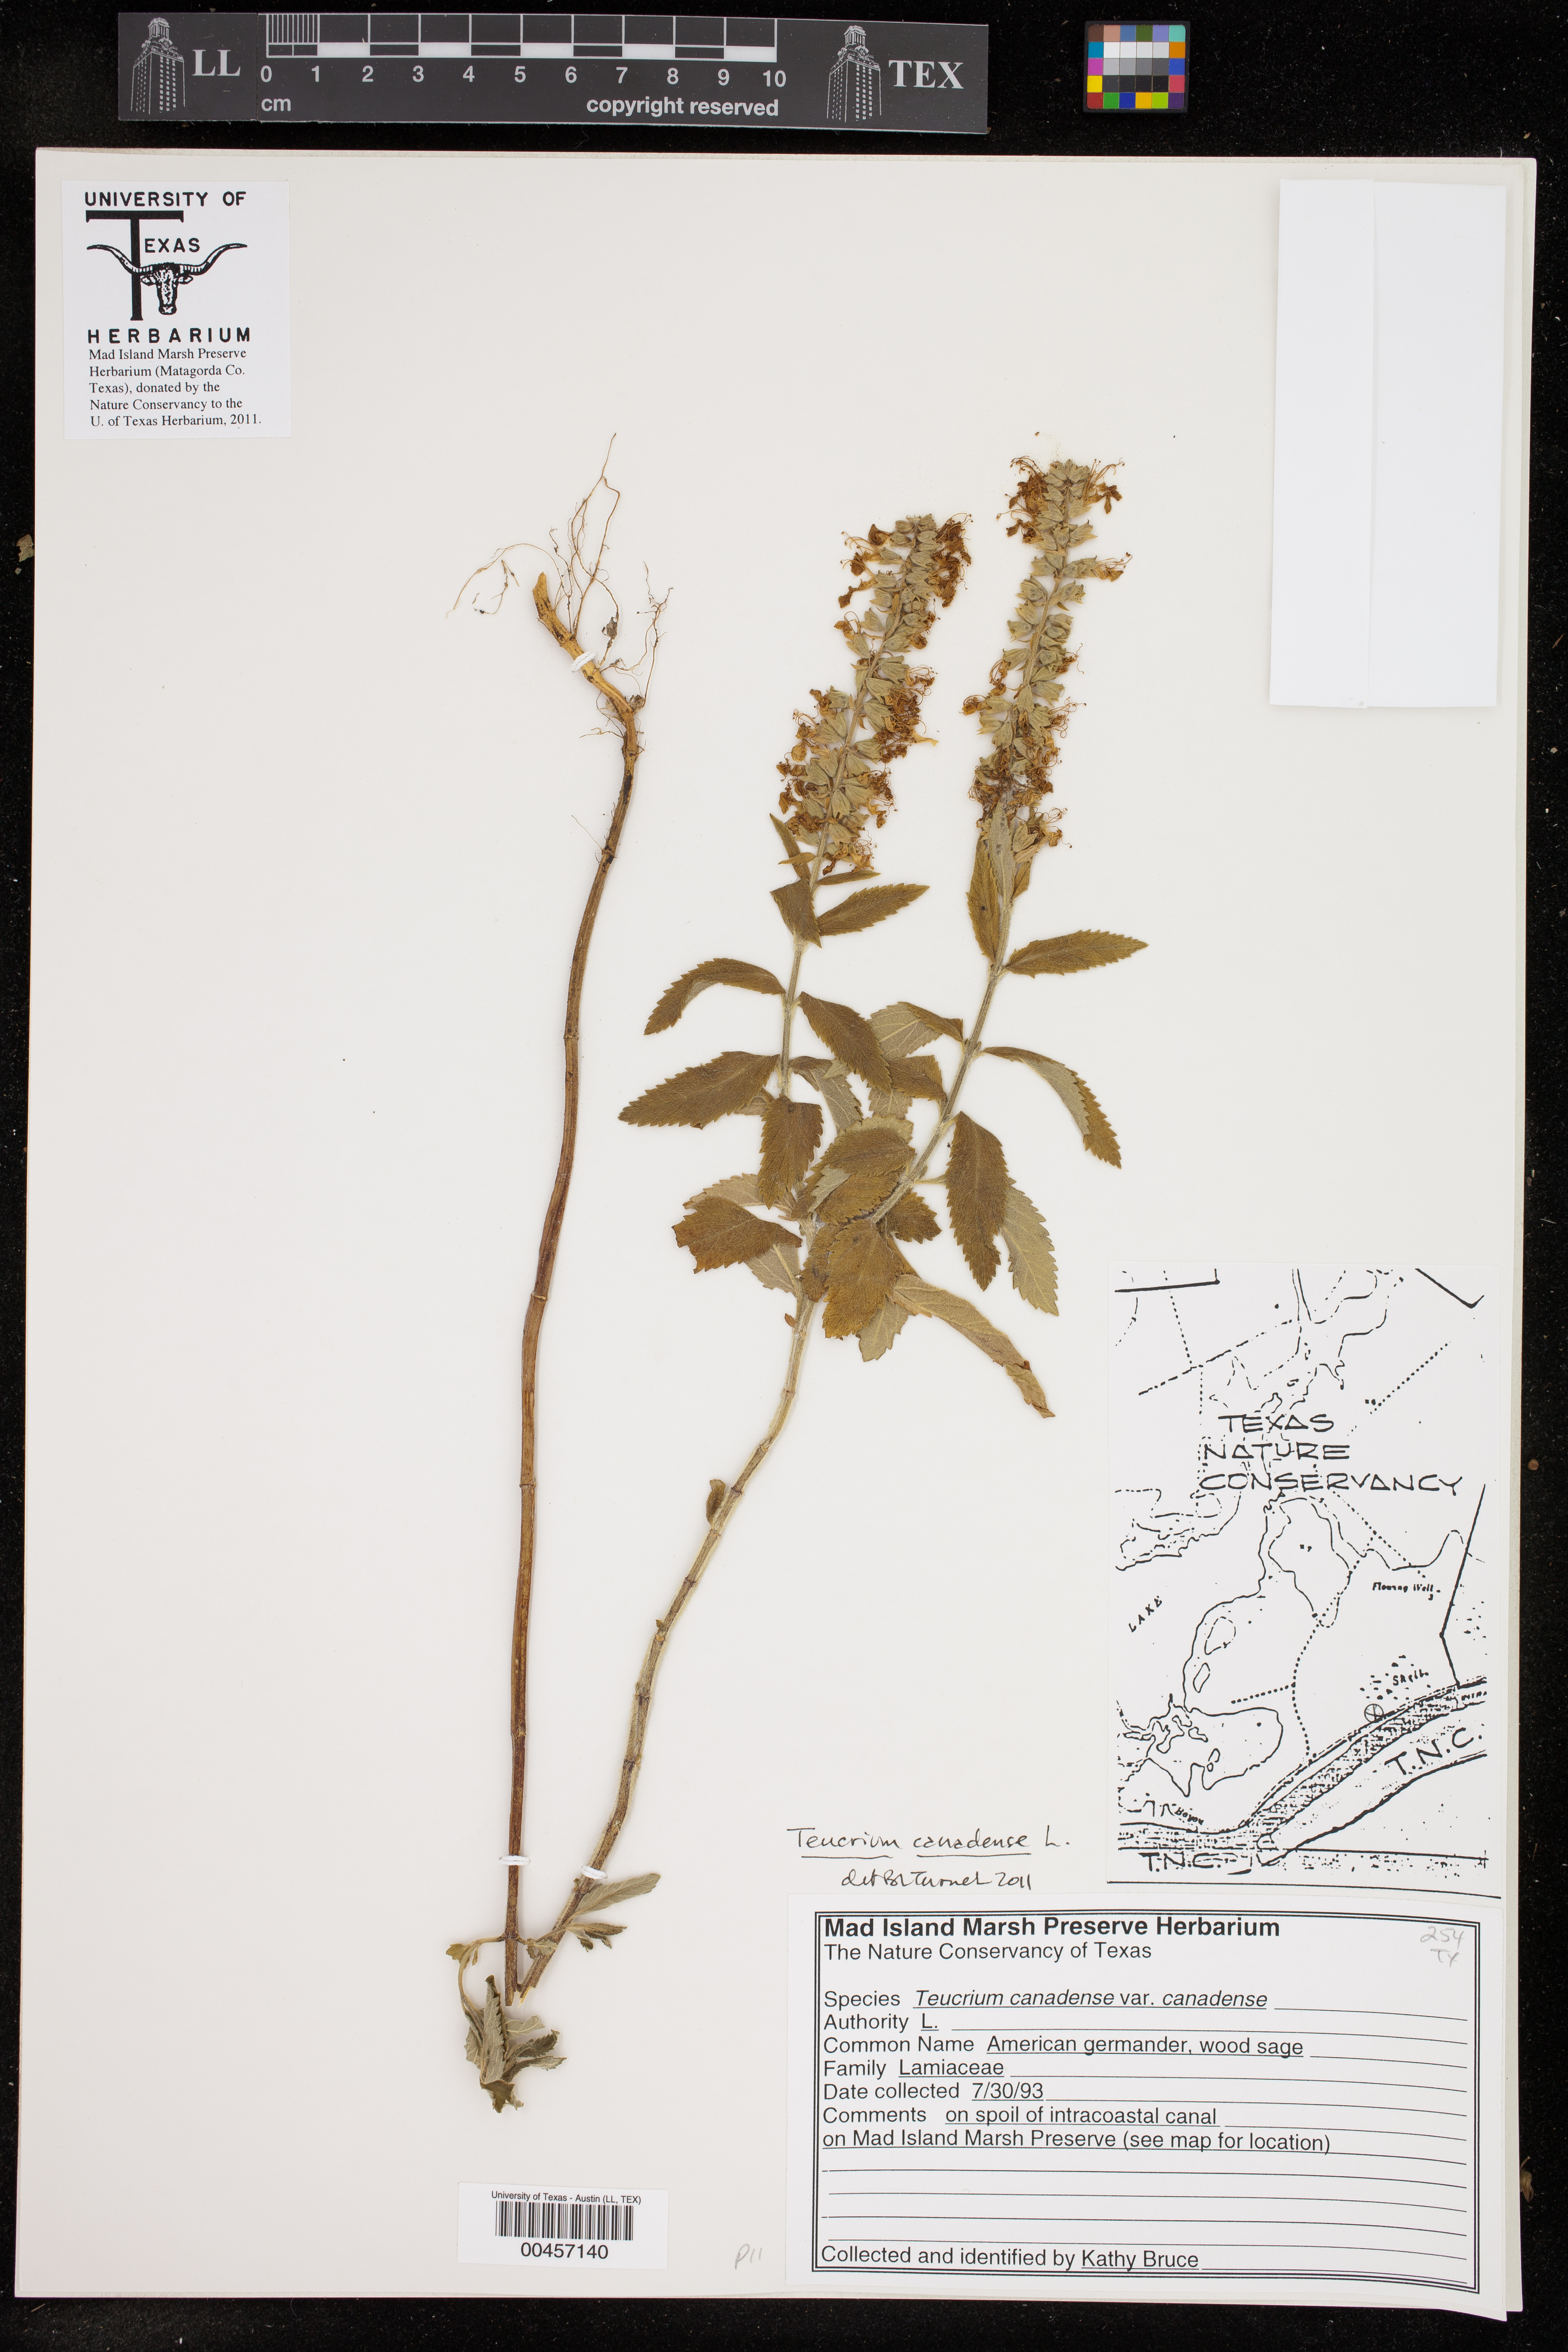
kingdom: Plantae
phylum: Tracheophyta
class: Magnoliopsida
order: Lamiales
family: Lamiaceae
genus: Teucrium
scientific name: Teucrium canadense
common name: American germander
